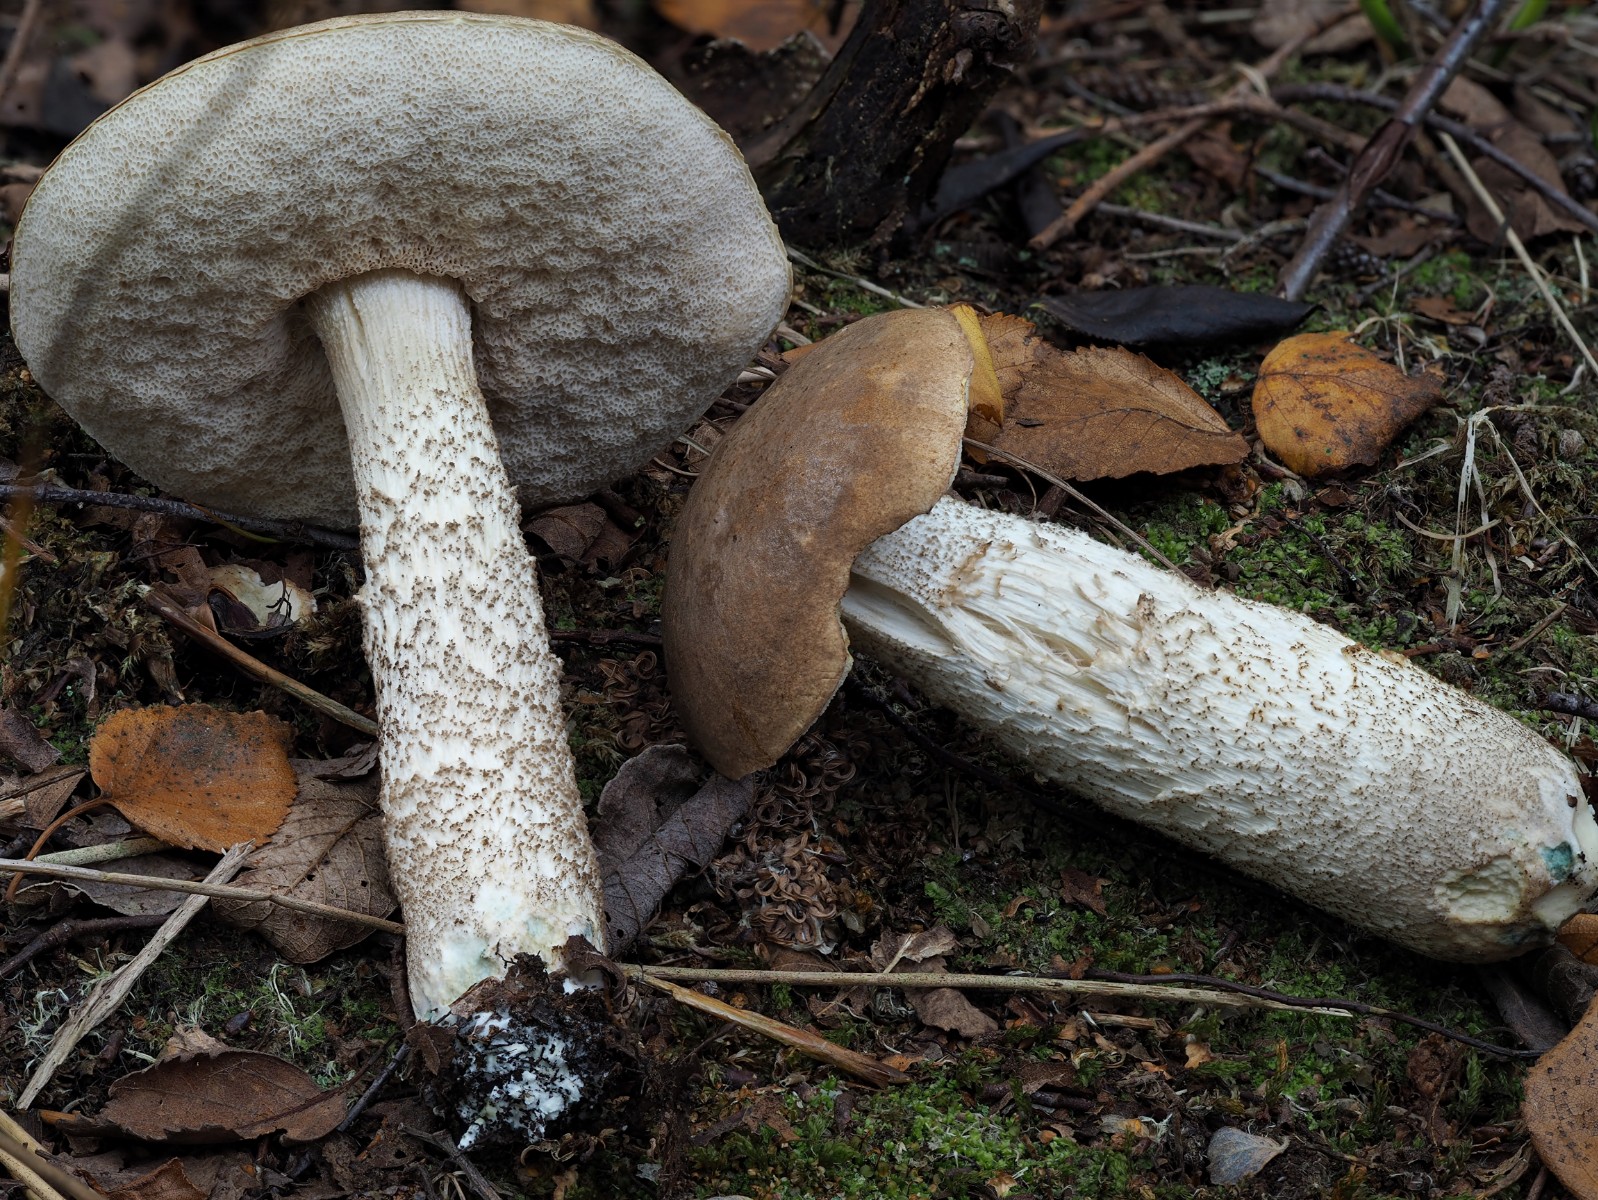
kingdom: Fungi
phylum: Basidiomycota
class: Agaricomycetes
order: Boletales
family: Boletaceae
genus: Leccinellum
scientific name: Leccinellum
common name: skælrørhat
